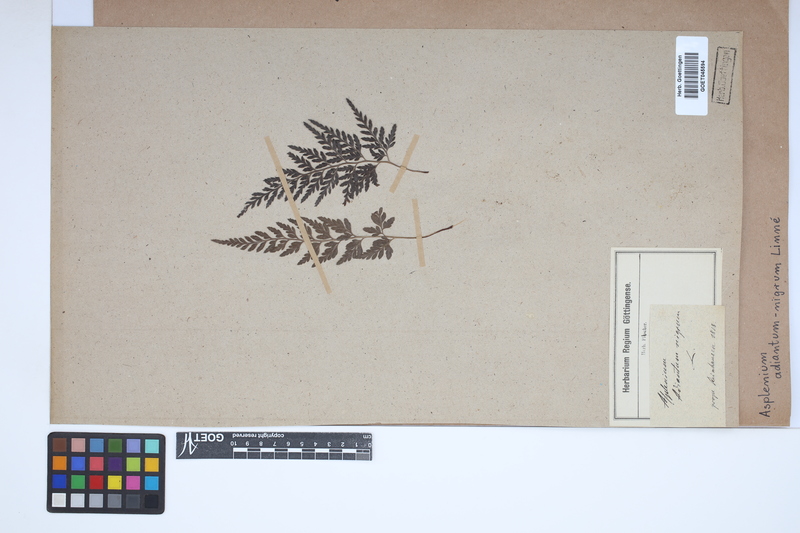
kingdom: Plantae
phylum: Tracheophyta
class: Polypodiopsida
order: Polypodiales
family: Aspleniaceae
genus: Asplenium
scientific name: Asplenium adiantum-nigrum
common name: Black spleenwort
